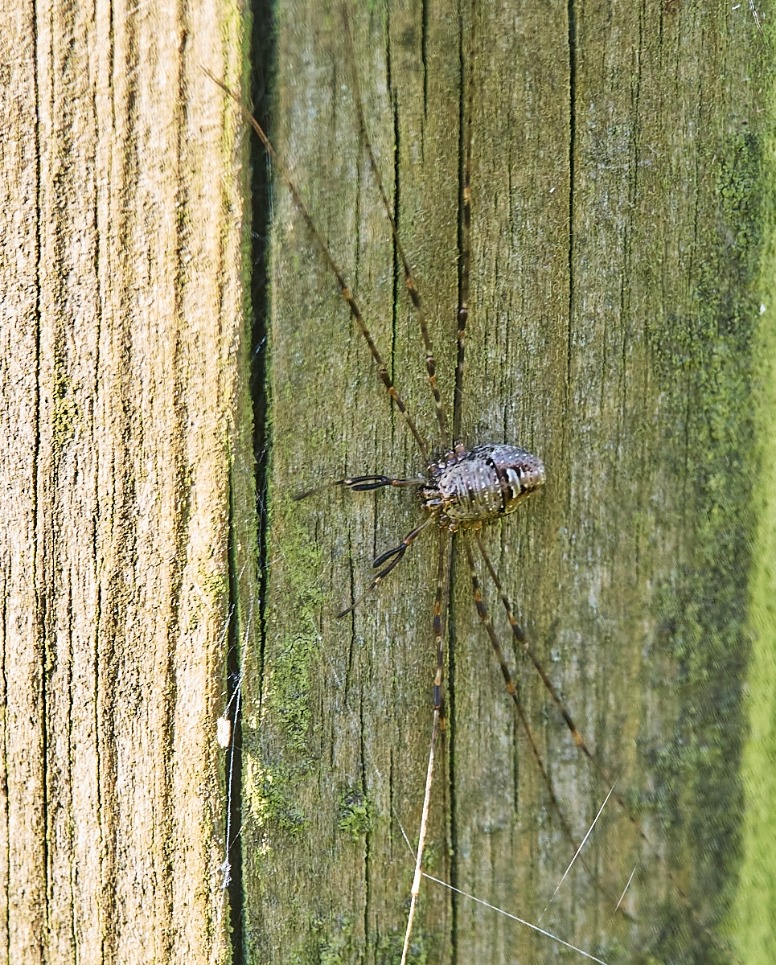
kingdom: Animalia
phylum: Arthropoda
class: Arachnida
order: Opiliones
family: Phalangiidae
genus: Dicranopalpus
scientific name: Dicranopalpus ramosus
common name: Gaffelmejer
